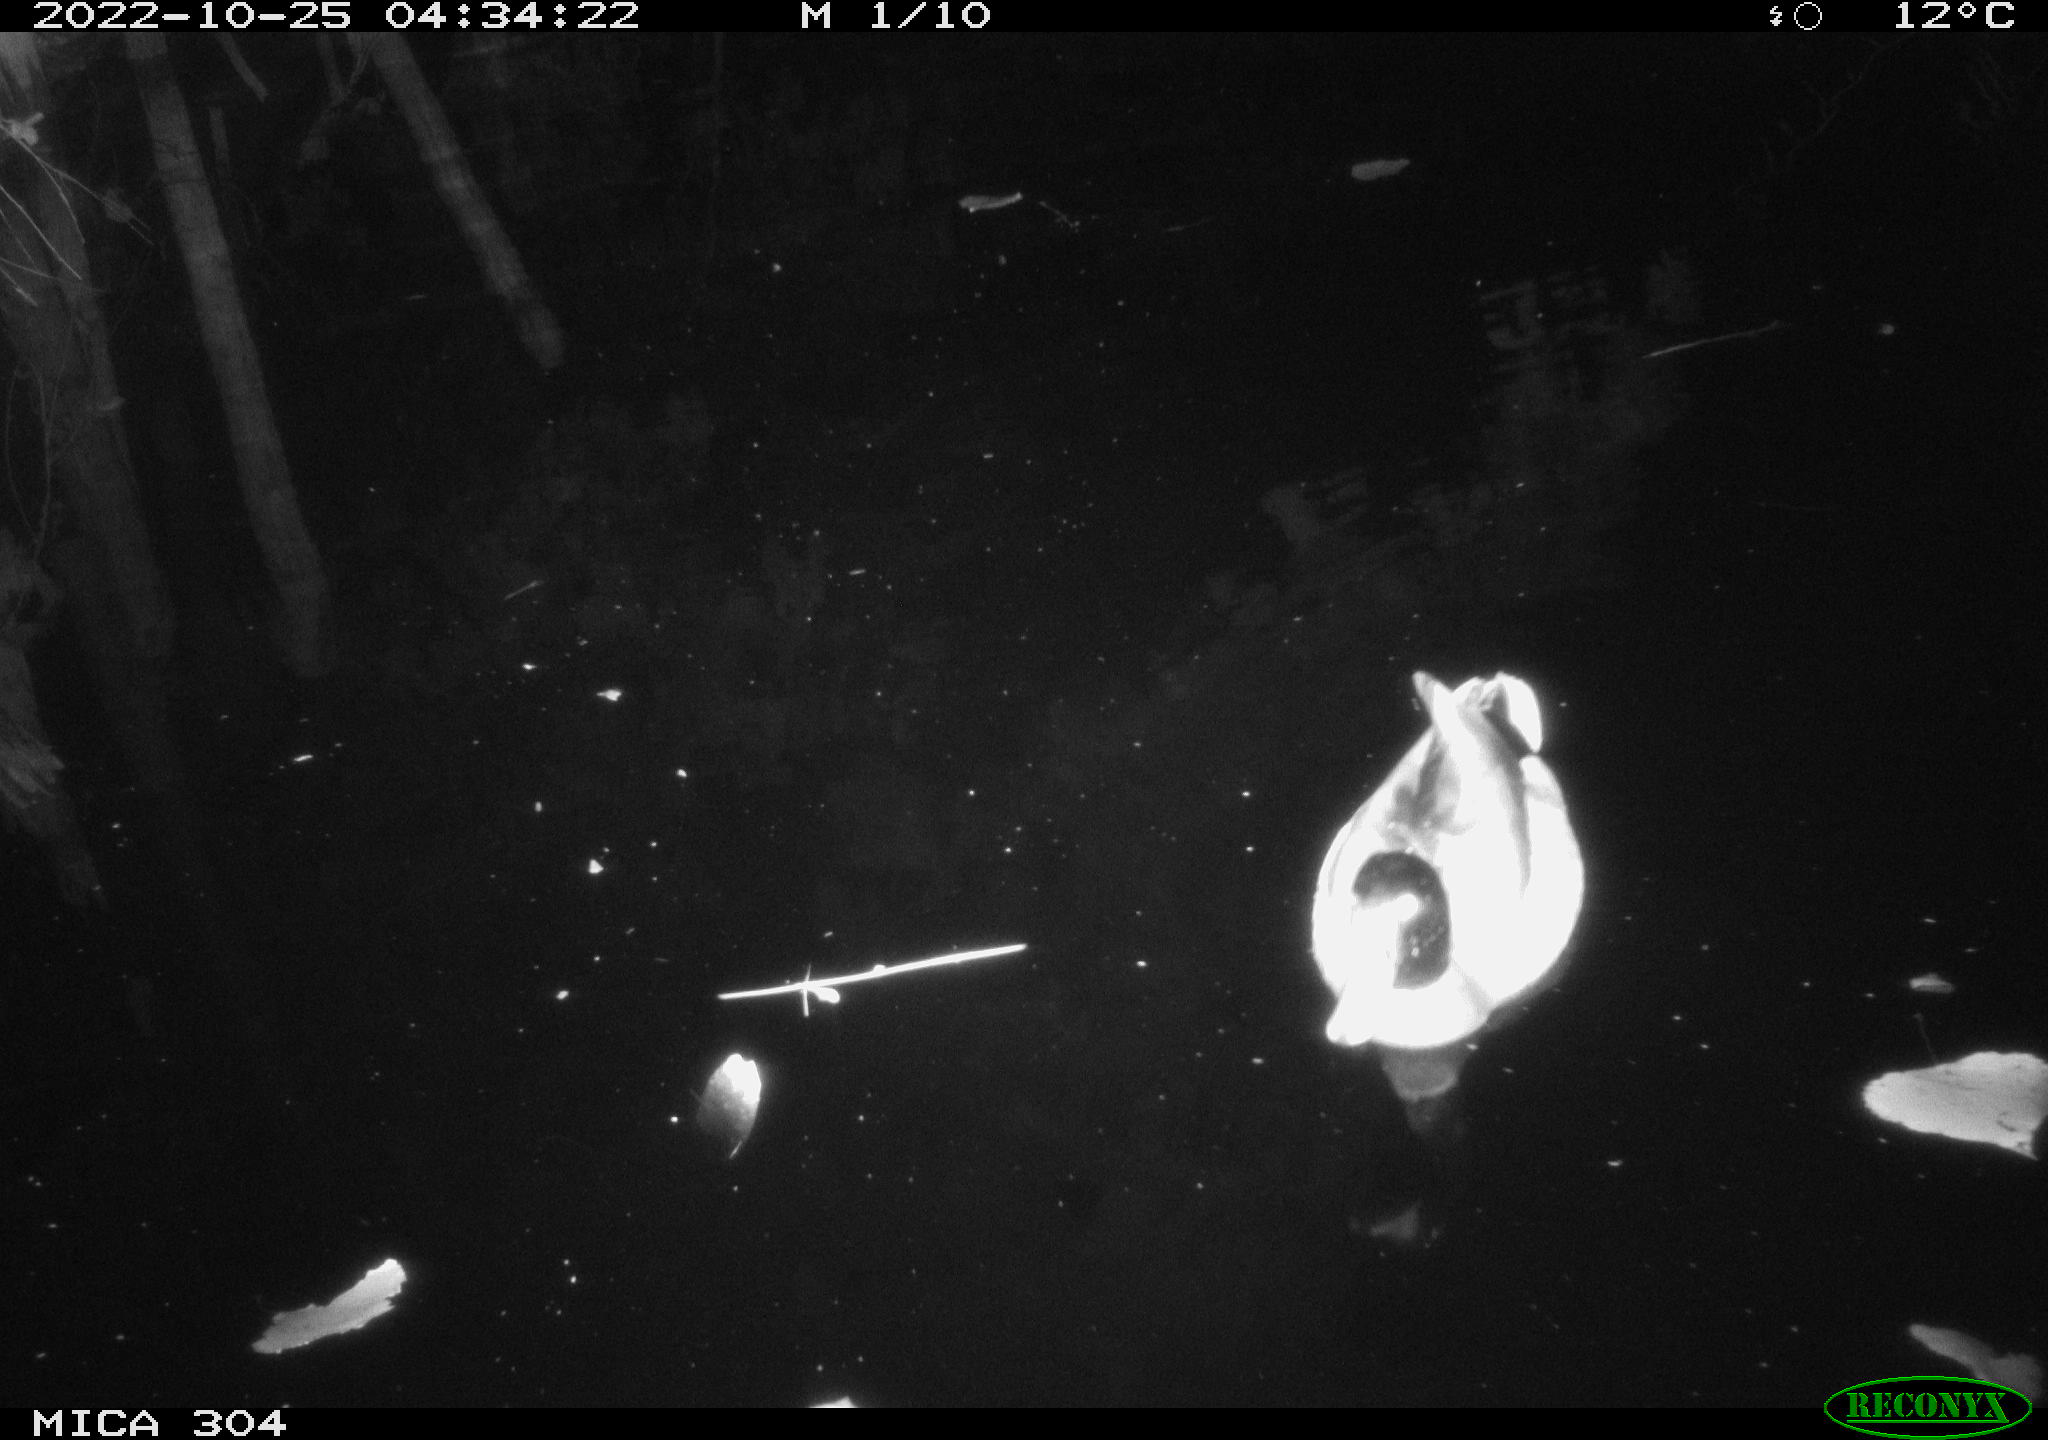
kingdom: Animalia
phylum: Chordata
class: Aves
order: Anseriformes
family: Anatidae
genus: Anas
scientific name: Anas
